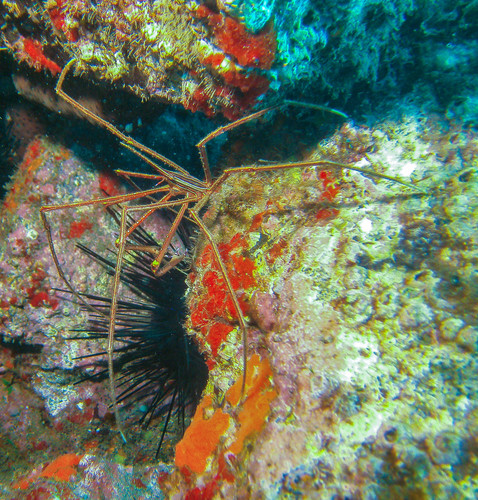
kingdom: Animalia
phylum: Arthropoda
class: Malacostraca
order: Decapoda
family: Inachoididae
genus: Stenorhynchus
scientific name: Stenorhynchus lanceolatus
